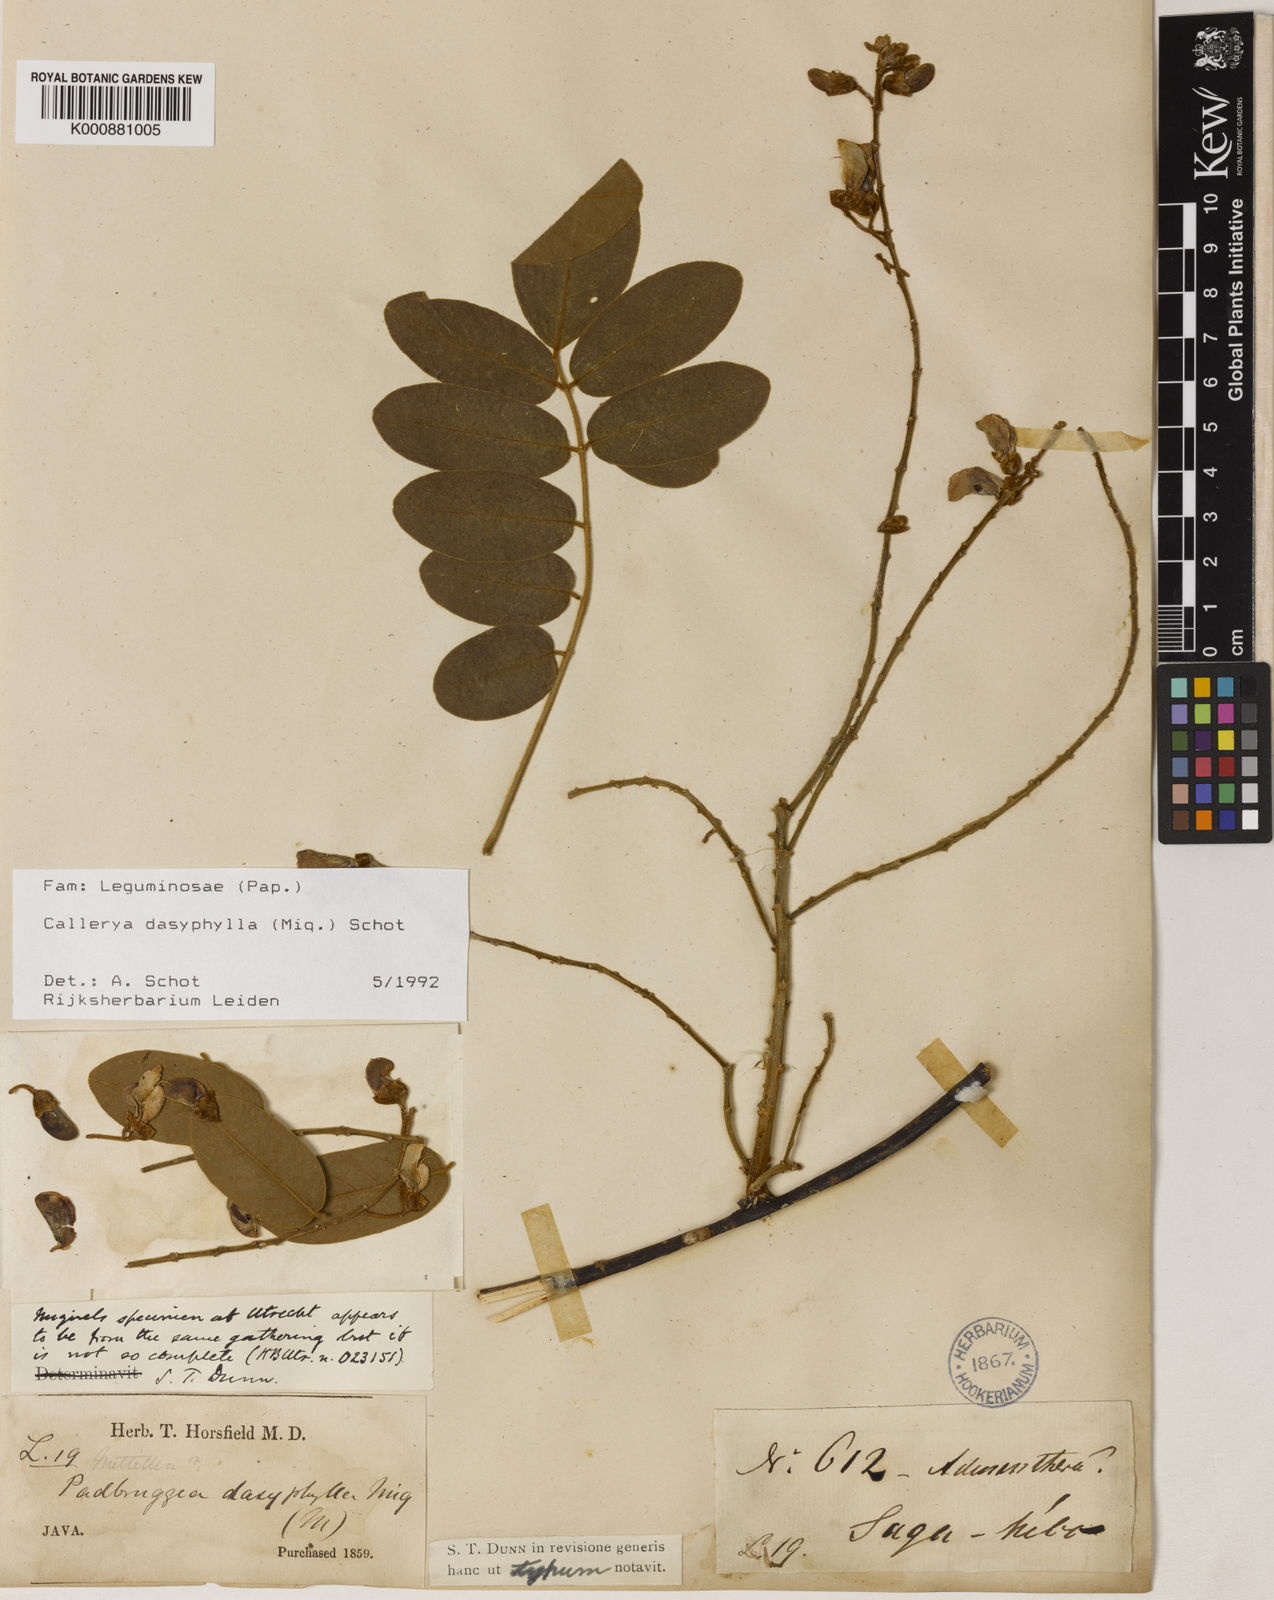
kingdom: Plantae
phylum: Tracheophyta
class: Magnoliopsida
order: Fabales
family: Fabaceae
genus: Padbruggea
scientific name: Padbruggea dasyphylla
